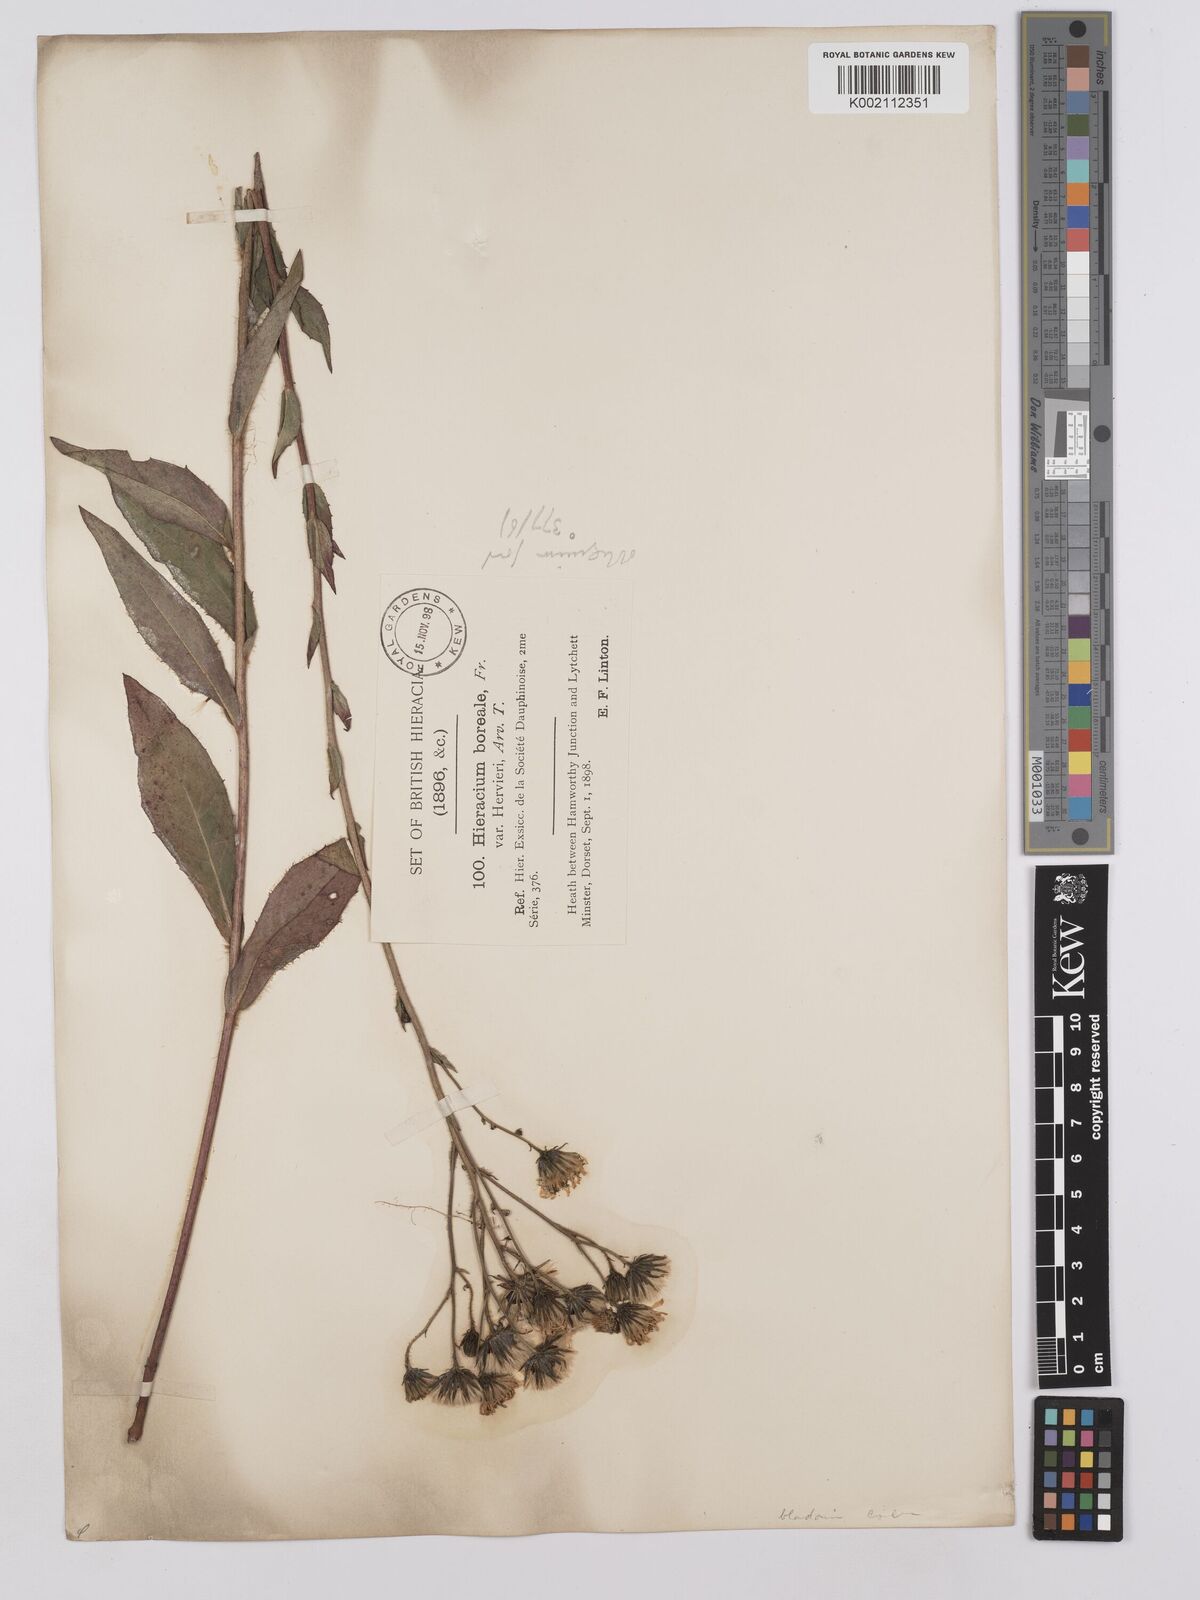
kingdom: Plantae
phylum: Tracheophyta
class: Magnoliopsida
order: Asterales
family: Asteraceae
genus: Hieracium
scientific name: Hieracium sabaudum
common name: New england hawkweed
